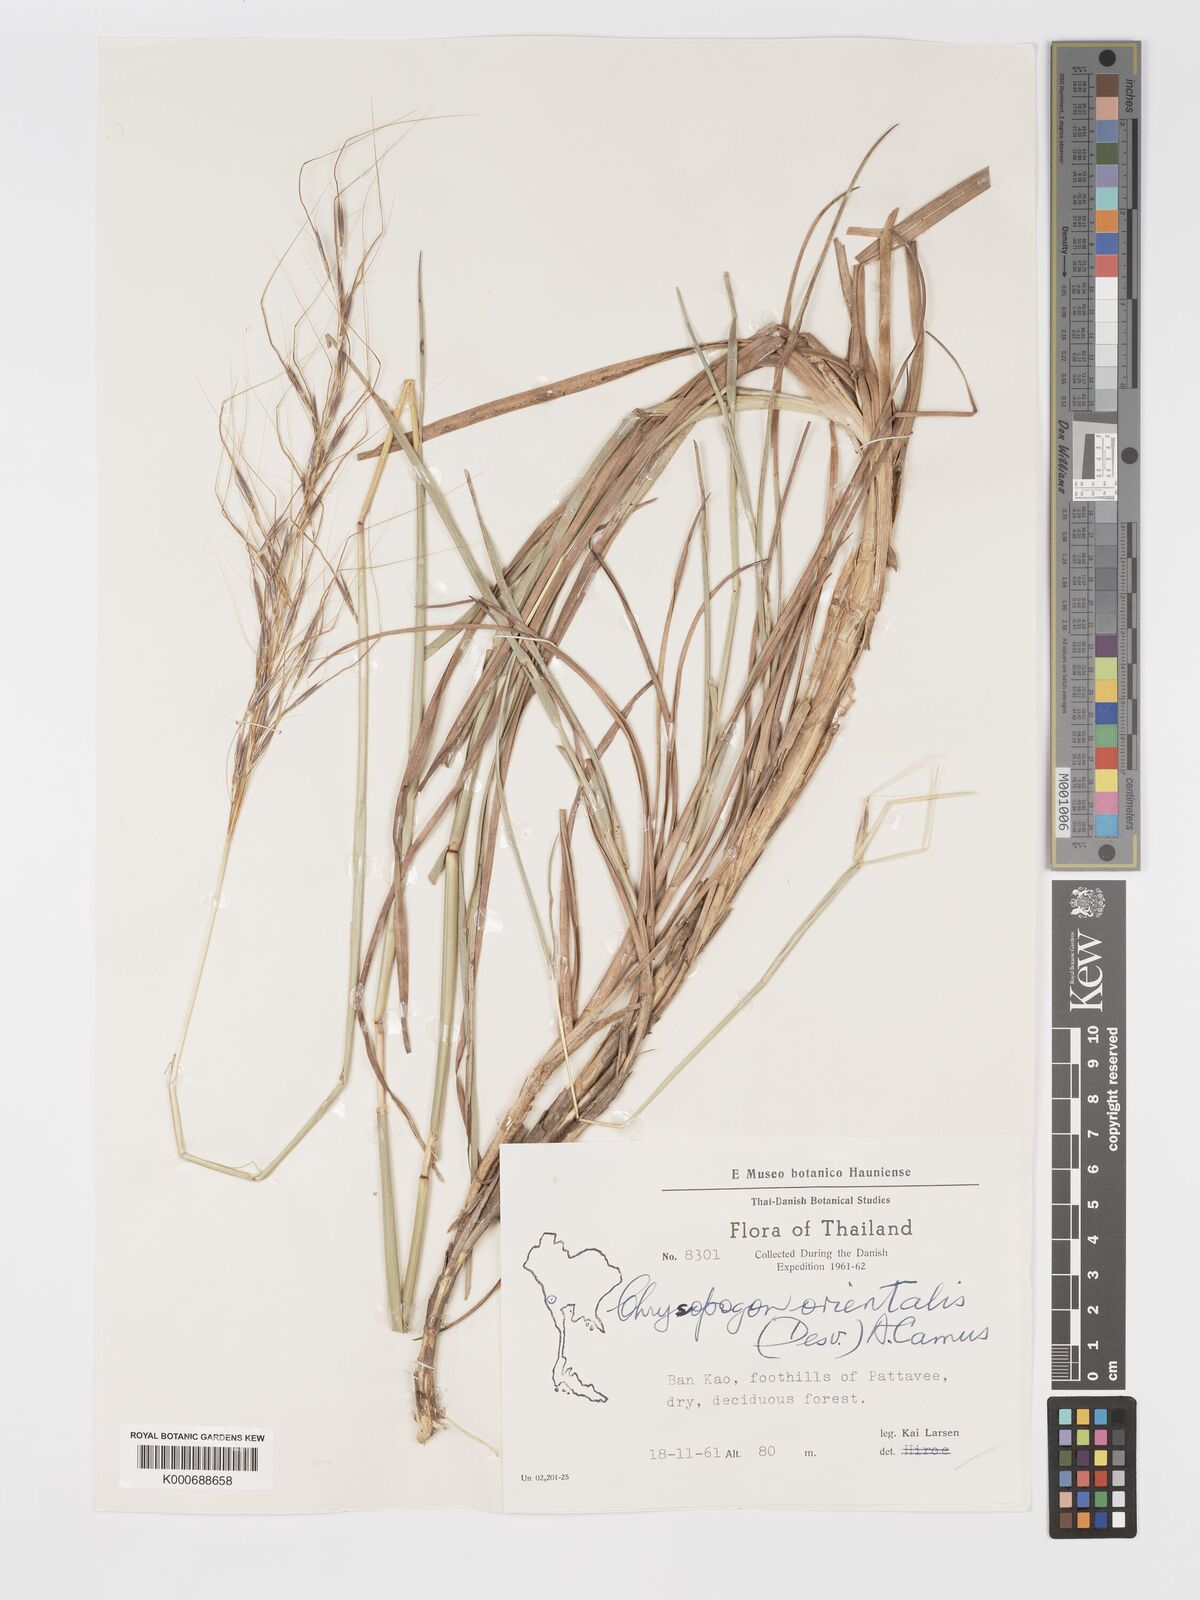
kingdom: Plantae
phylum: Tracheophyta
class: Liliopsida
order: Poales
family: Poaceae
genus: Chrysopogon
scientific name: Chrysopogon orientalis
